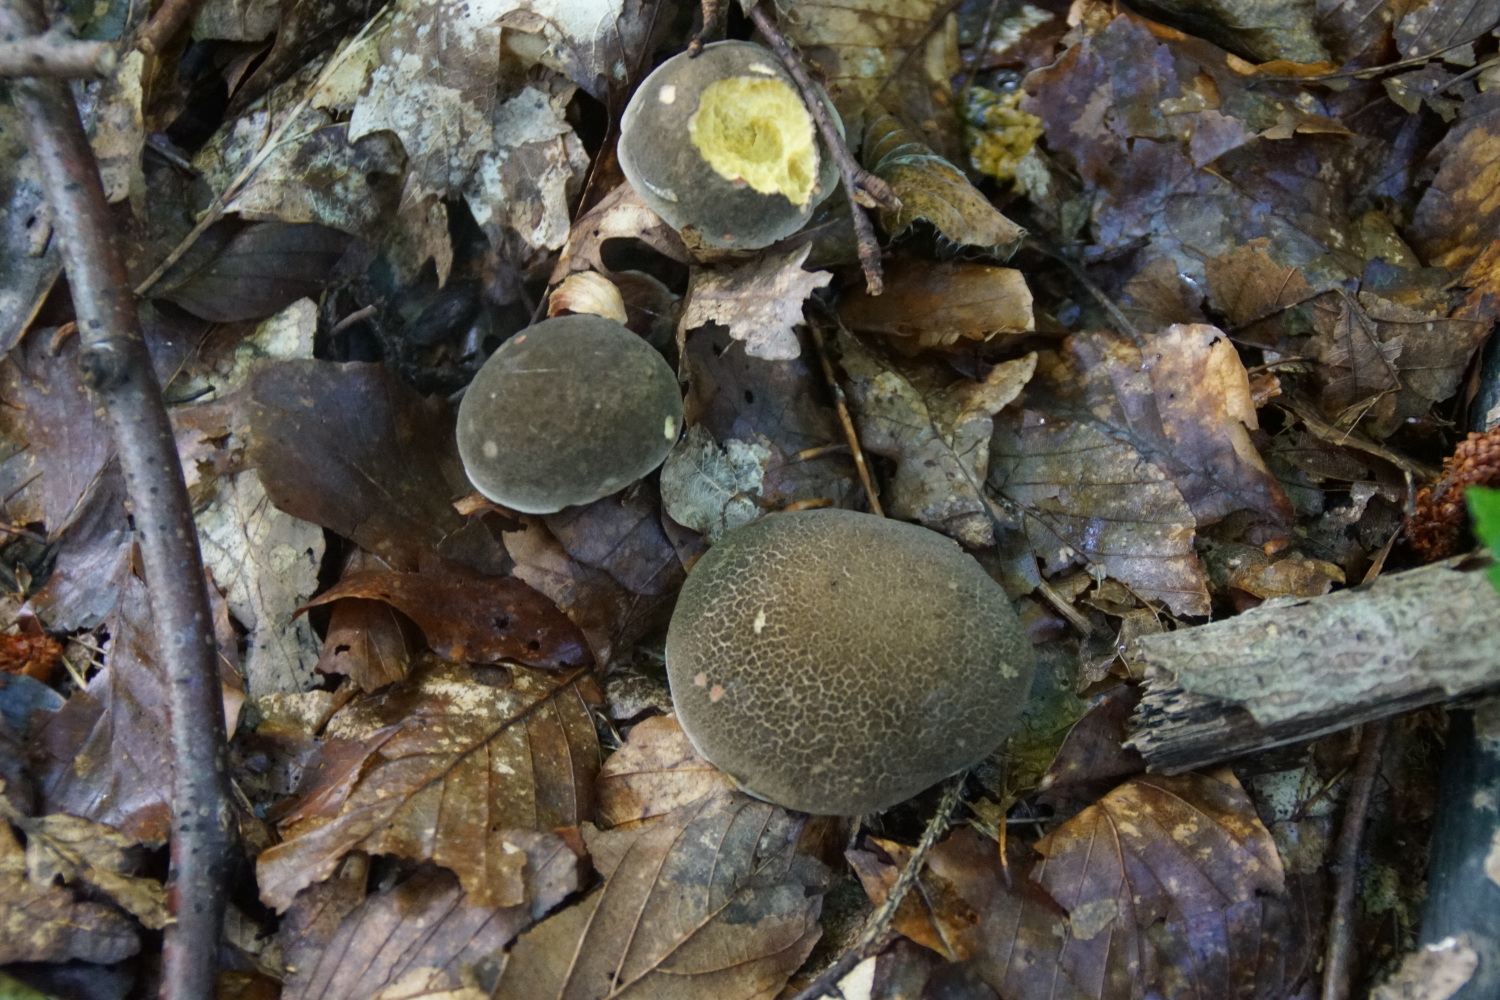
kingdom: Fungi
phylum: Basidiomycota
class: Agaricomycetes
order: Boletales
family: Boletaceae
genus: Xerocomellus
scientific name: Xerocomellus chrysenteron
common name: rødsprukken rørhat
